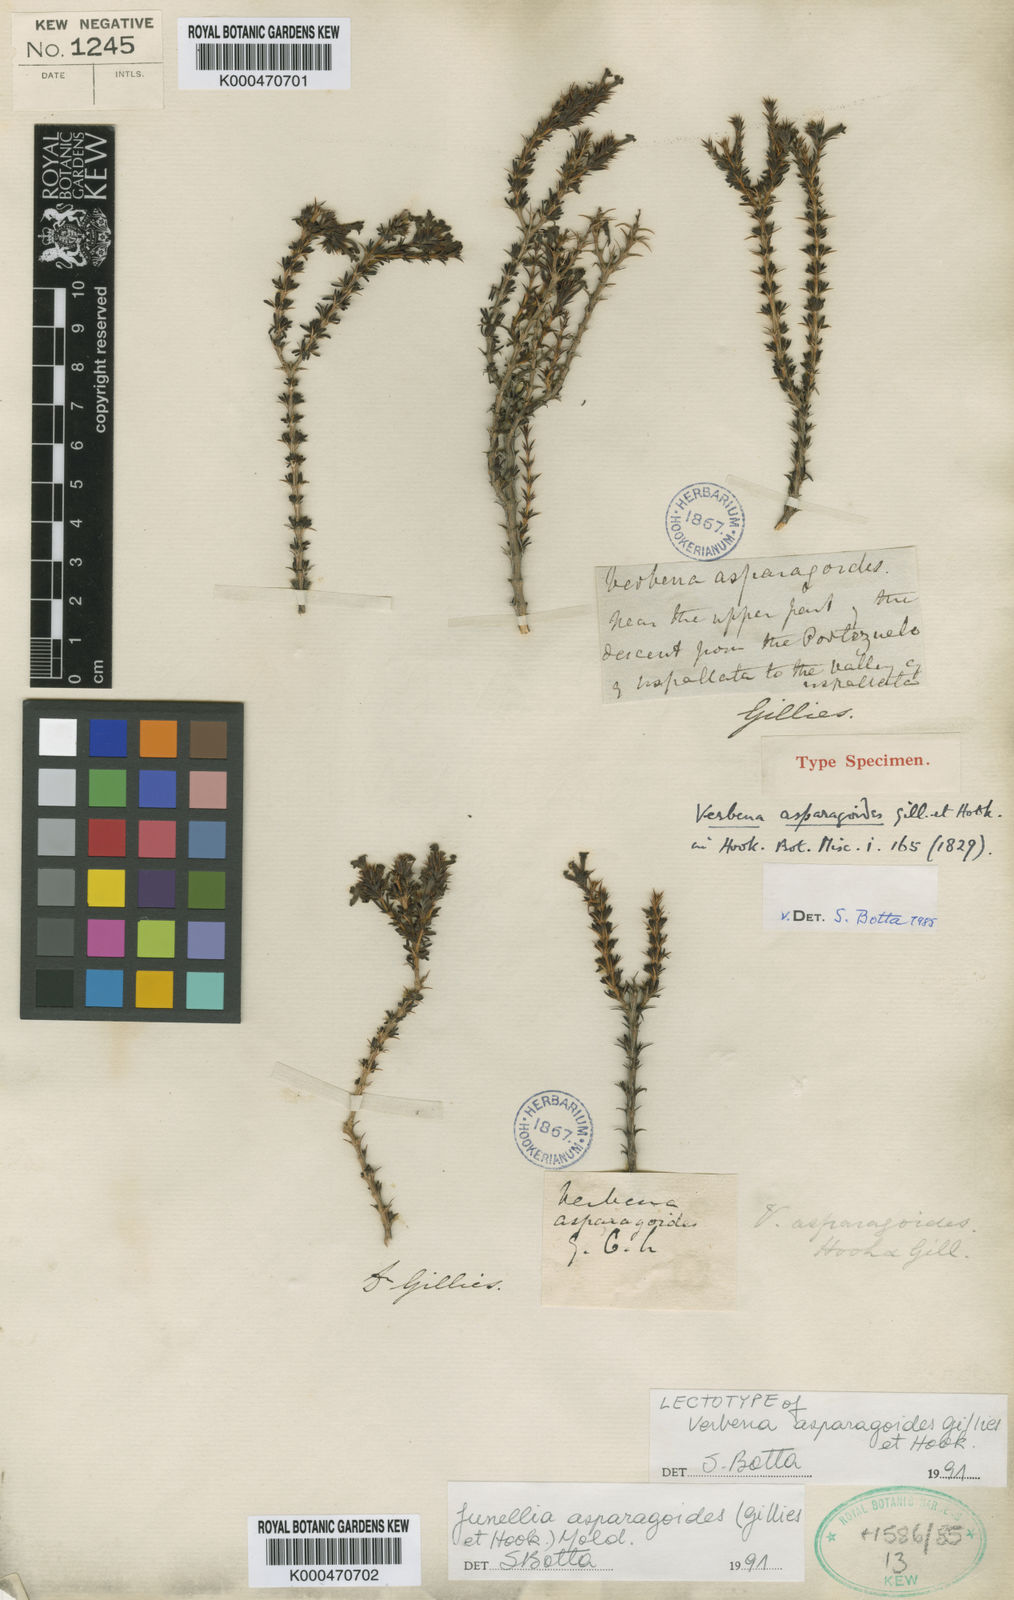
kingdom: Plantae
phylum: Tracheophyta
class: Magnoliopsida
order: Lamiales
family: Verbenaceae
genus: Mulguraea
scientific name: Mulguraea asparagoides
